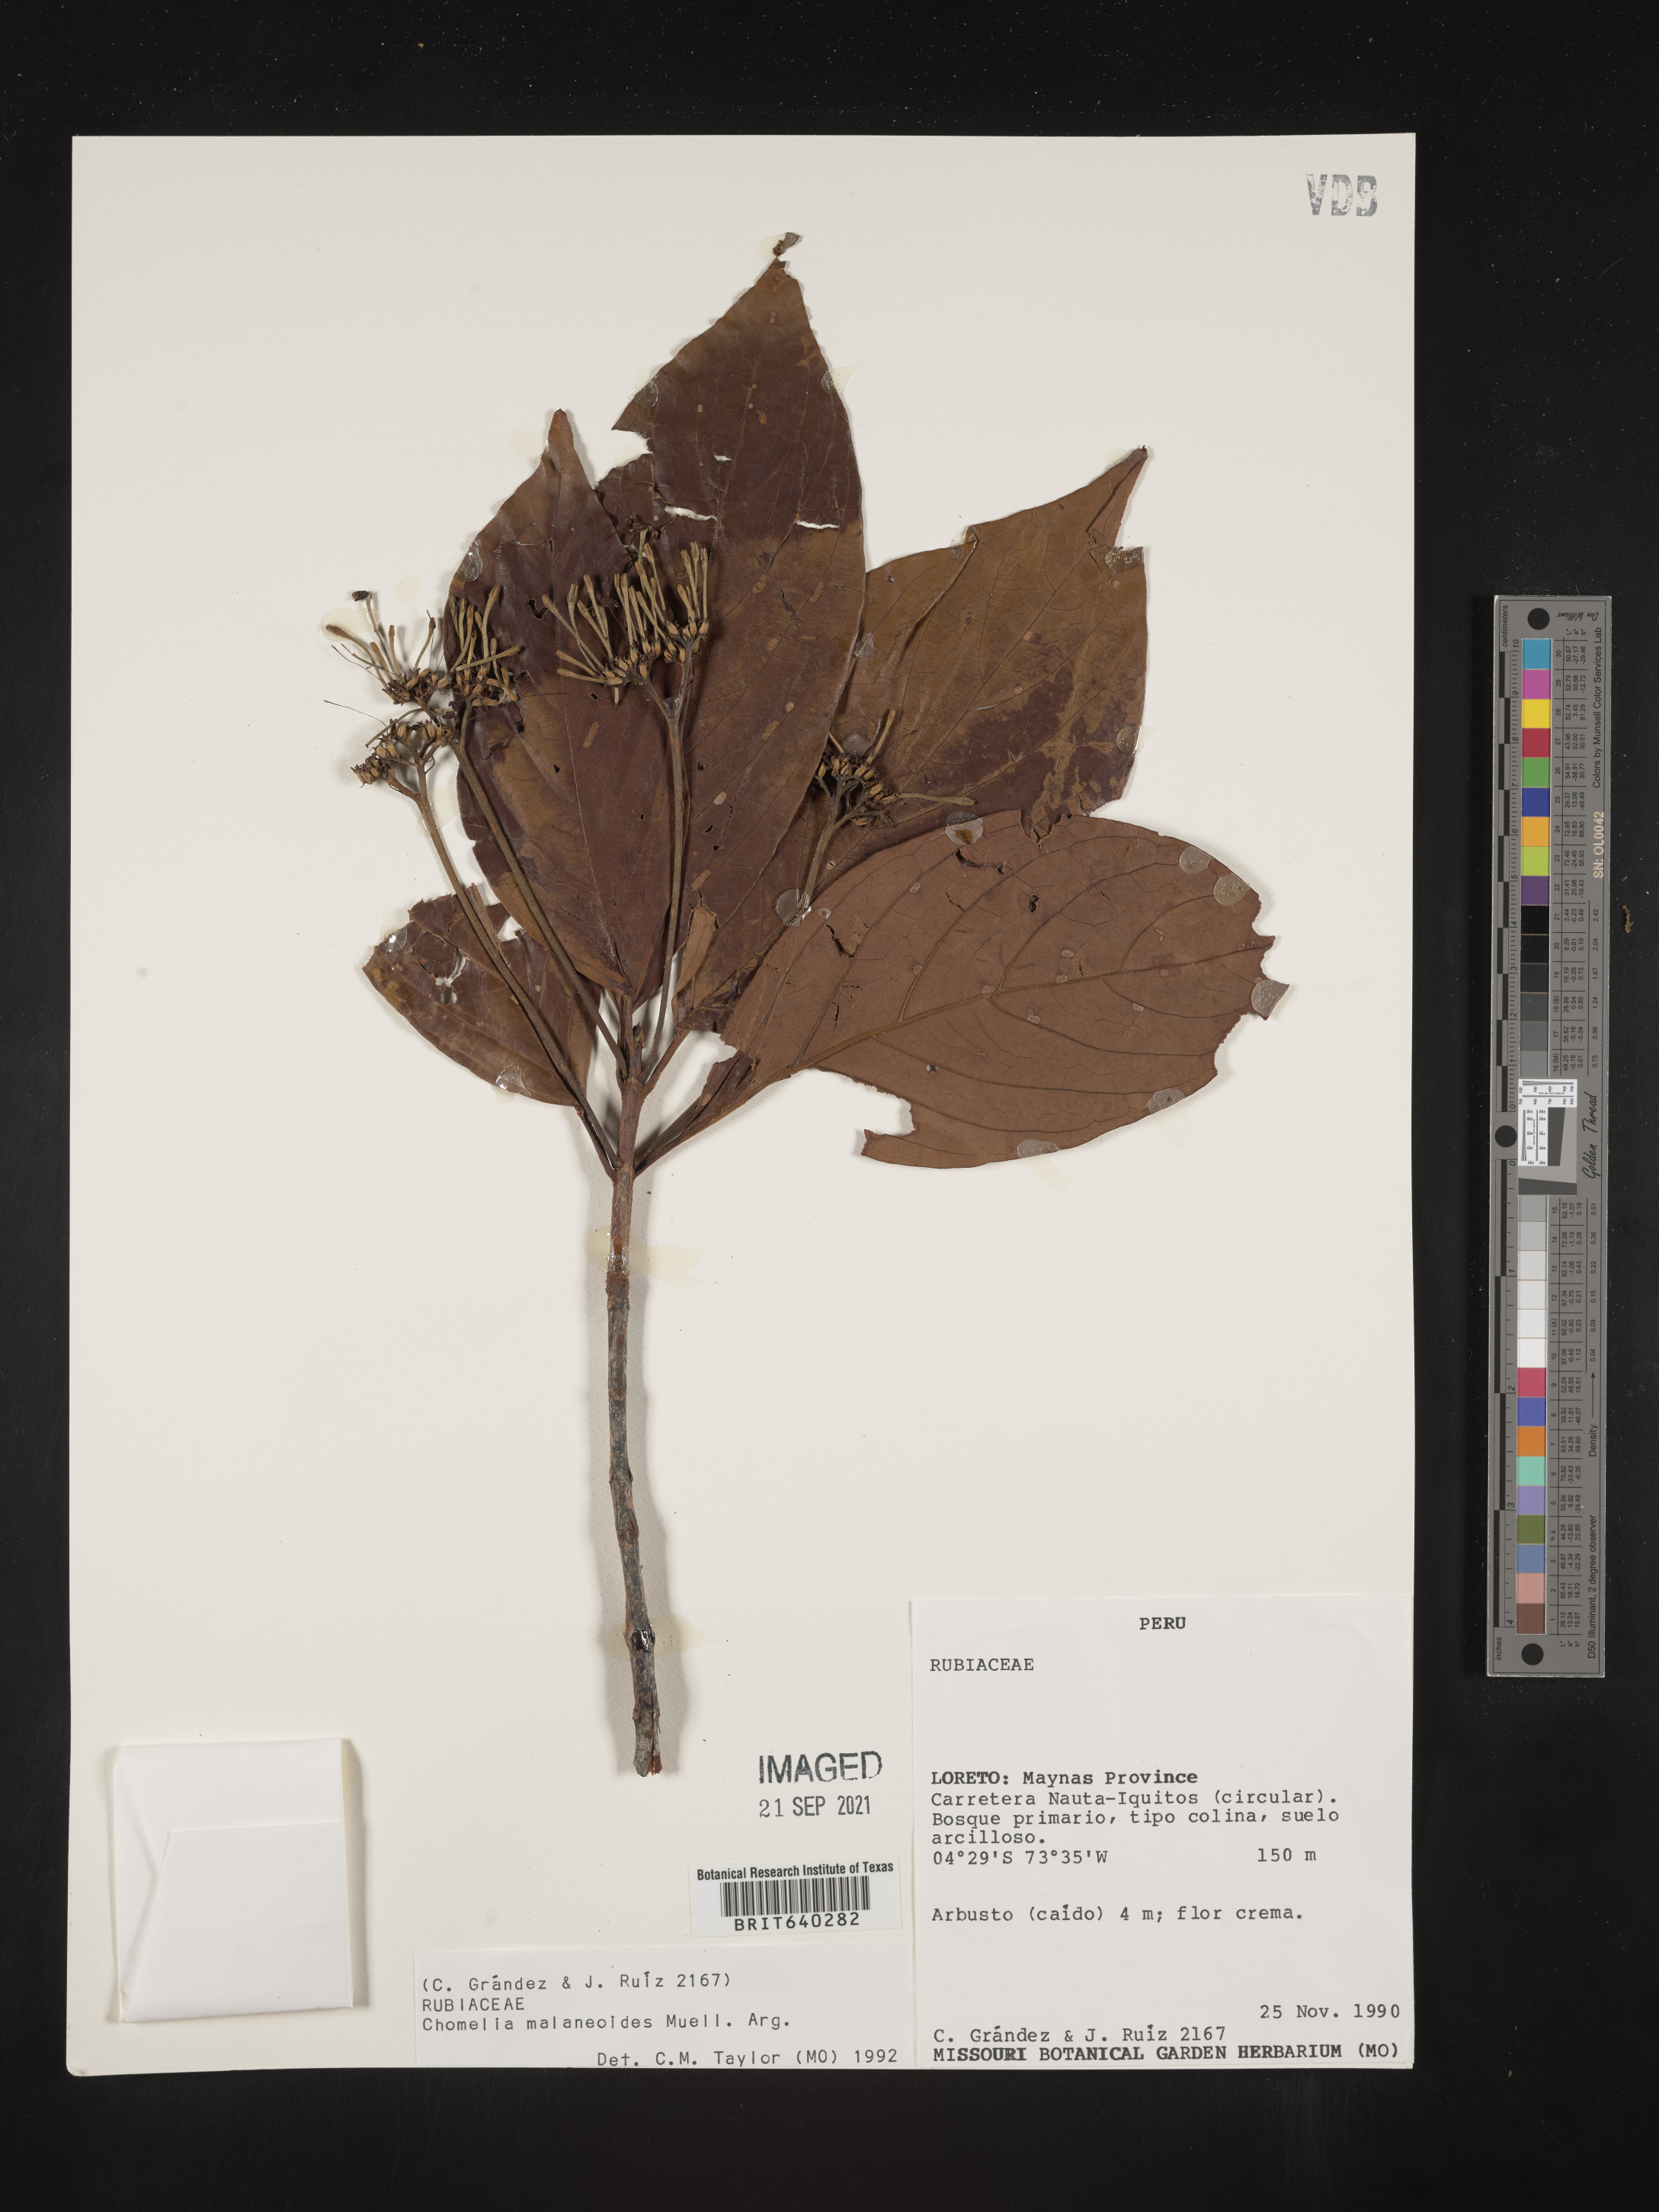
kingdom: Plantae
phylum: Tracheophyta
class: Magnoliopsida
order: Gentianales
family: Rubiaceae
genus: Chomelia
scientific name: Chomelia
